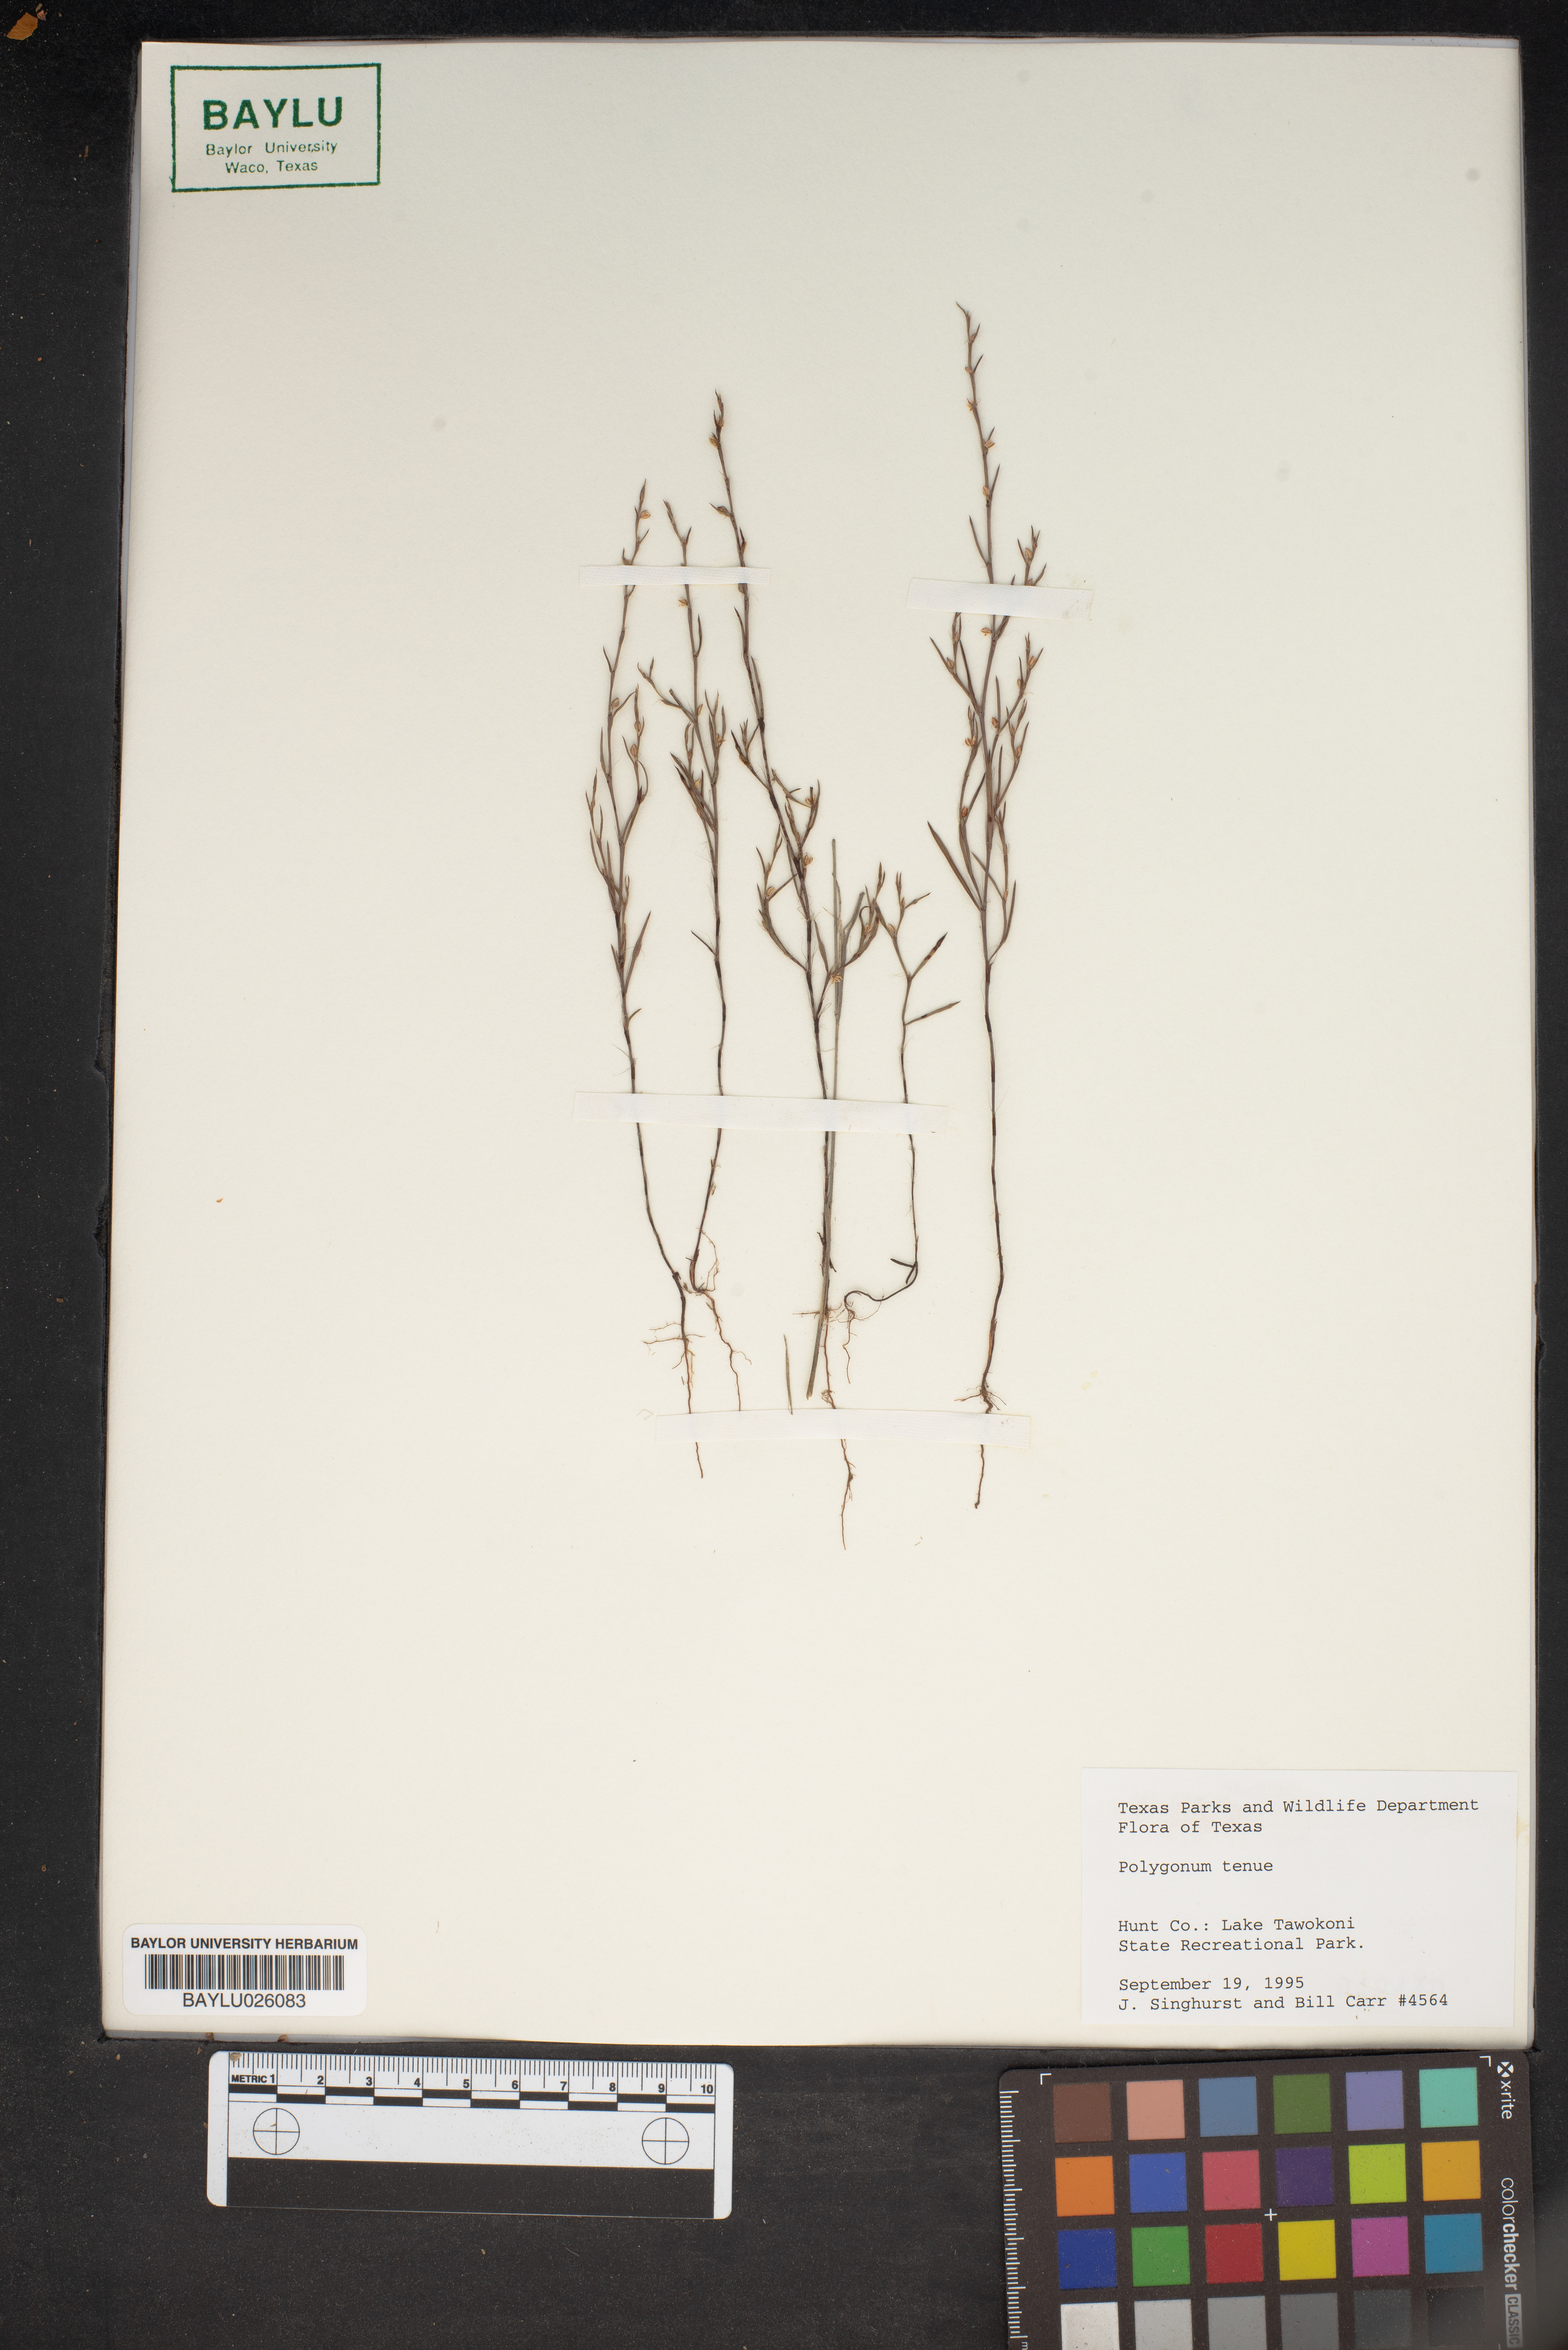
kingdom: Plantae
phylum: Tracheophyta
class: Magnoliopsida
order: Caryophyllales
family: Polygonaceae
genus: Polygonum
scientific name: Polygonum tenue
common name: Pleat-leaved knotweed
